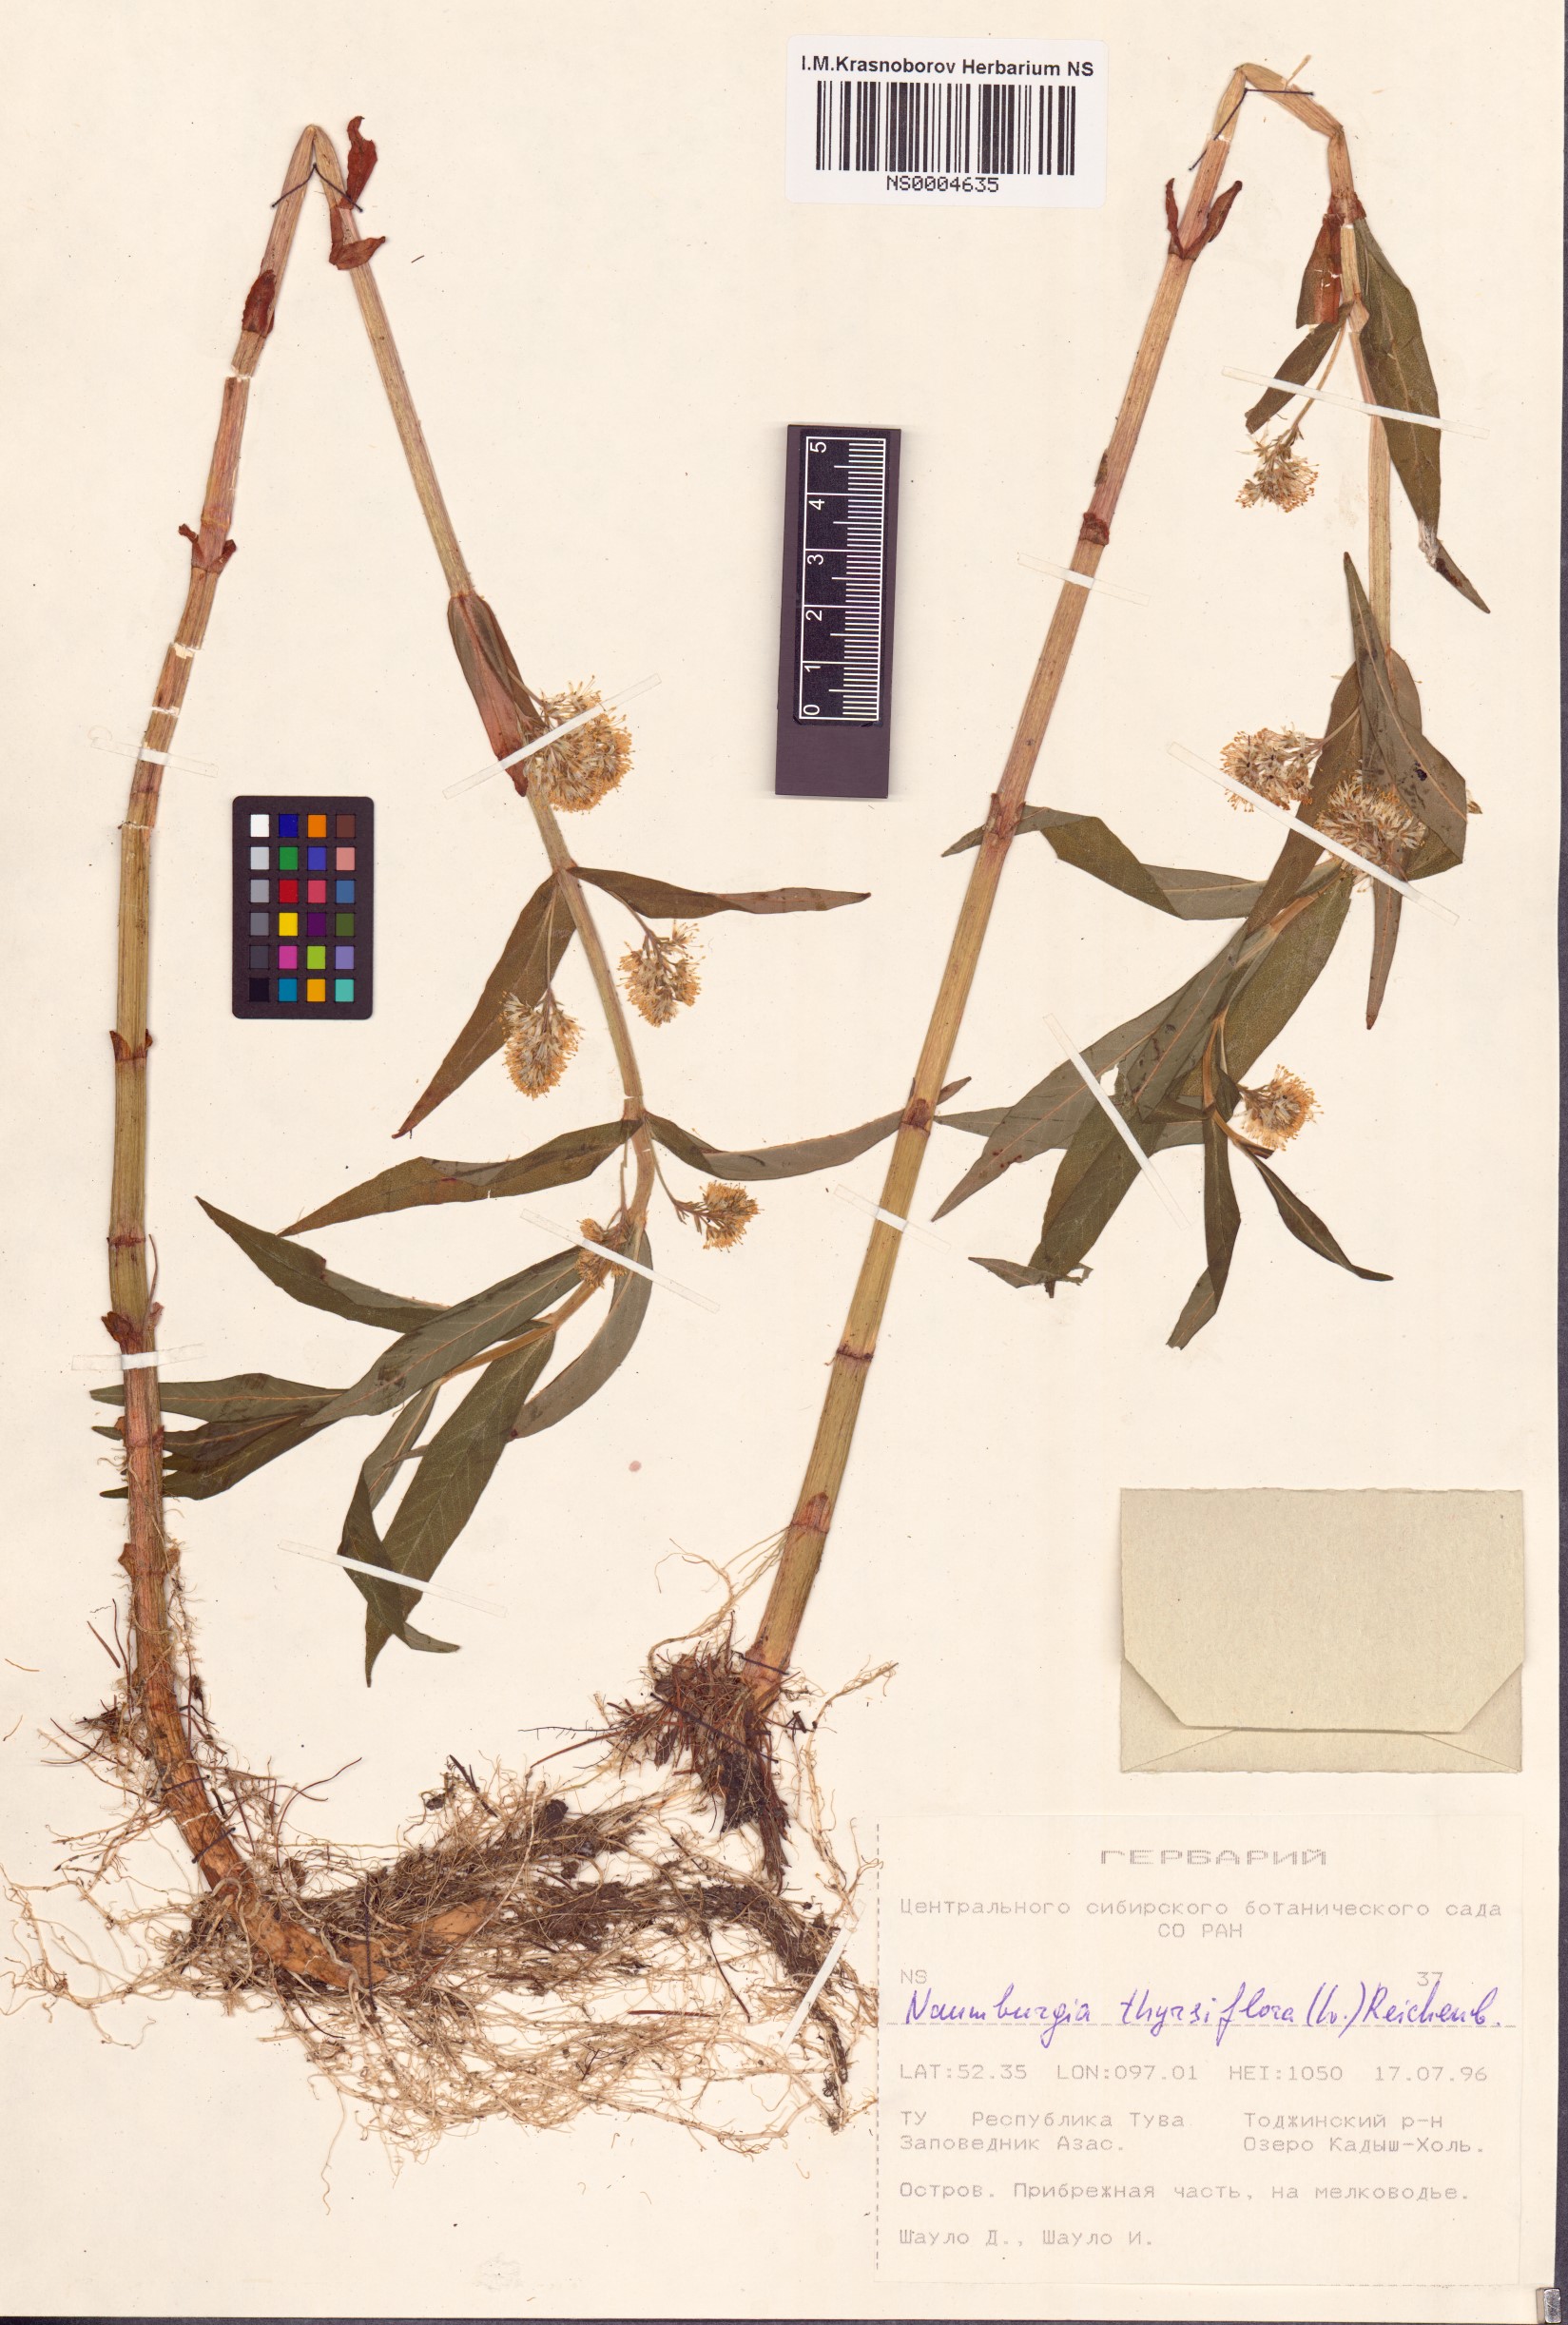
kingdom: Plantae
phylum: Tracheophyta
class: Magnoliopsida
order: Ericales
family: Primulaceae
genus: Lysimachia
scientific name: Lysimachia thyrsiflora
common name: Tufted loosestrife
